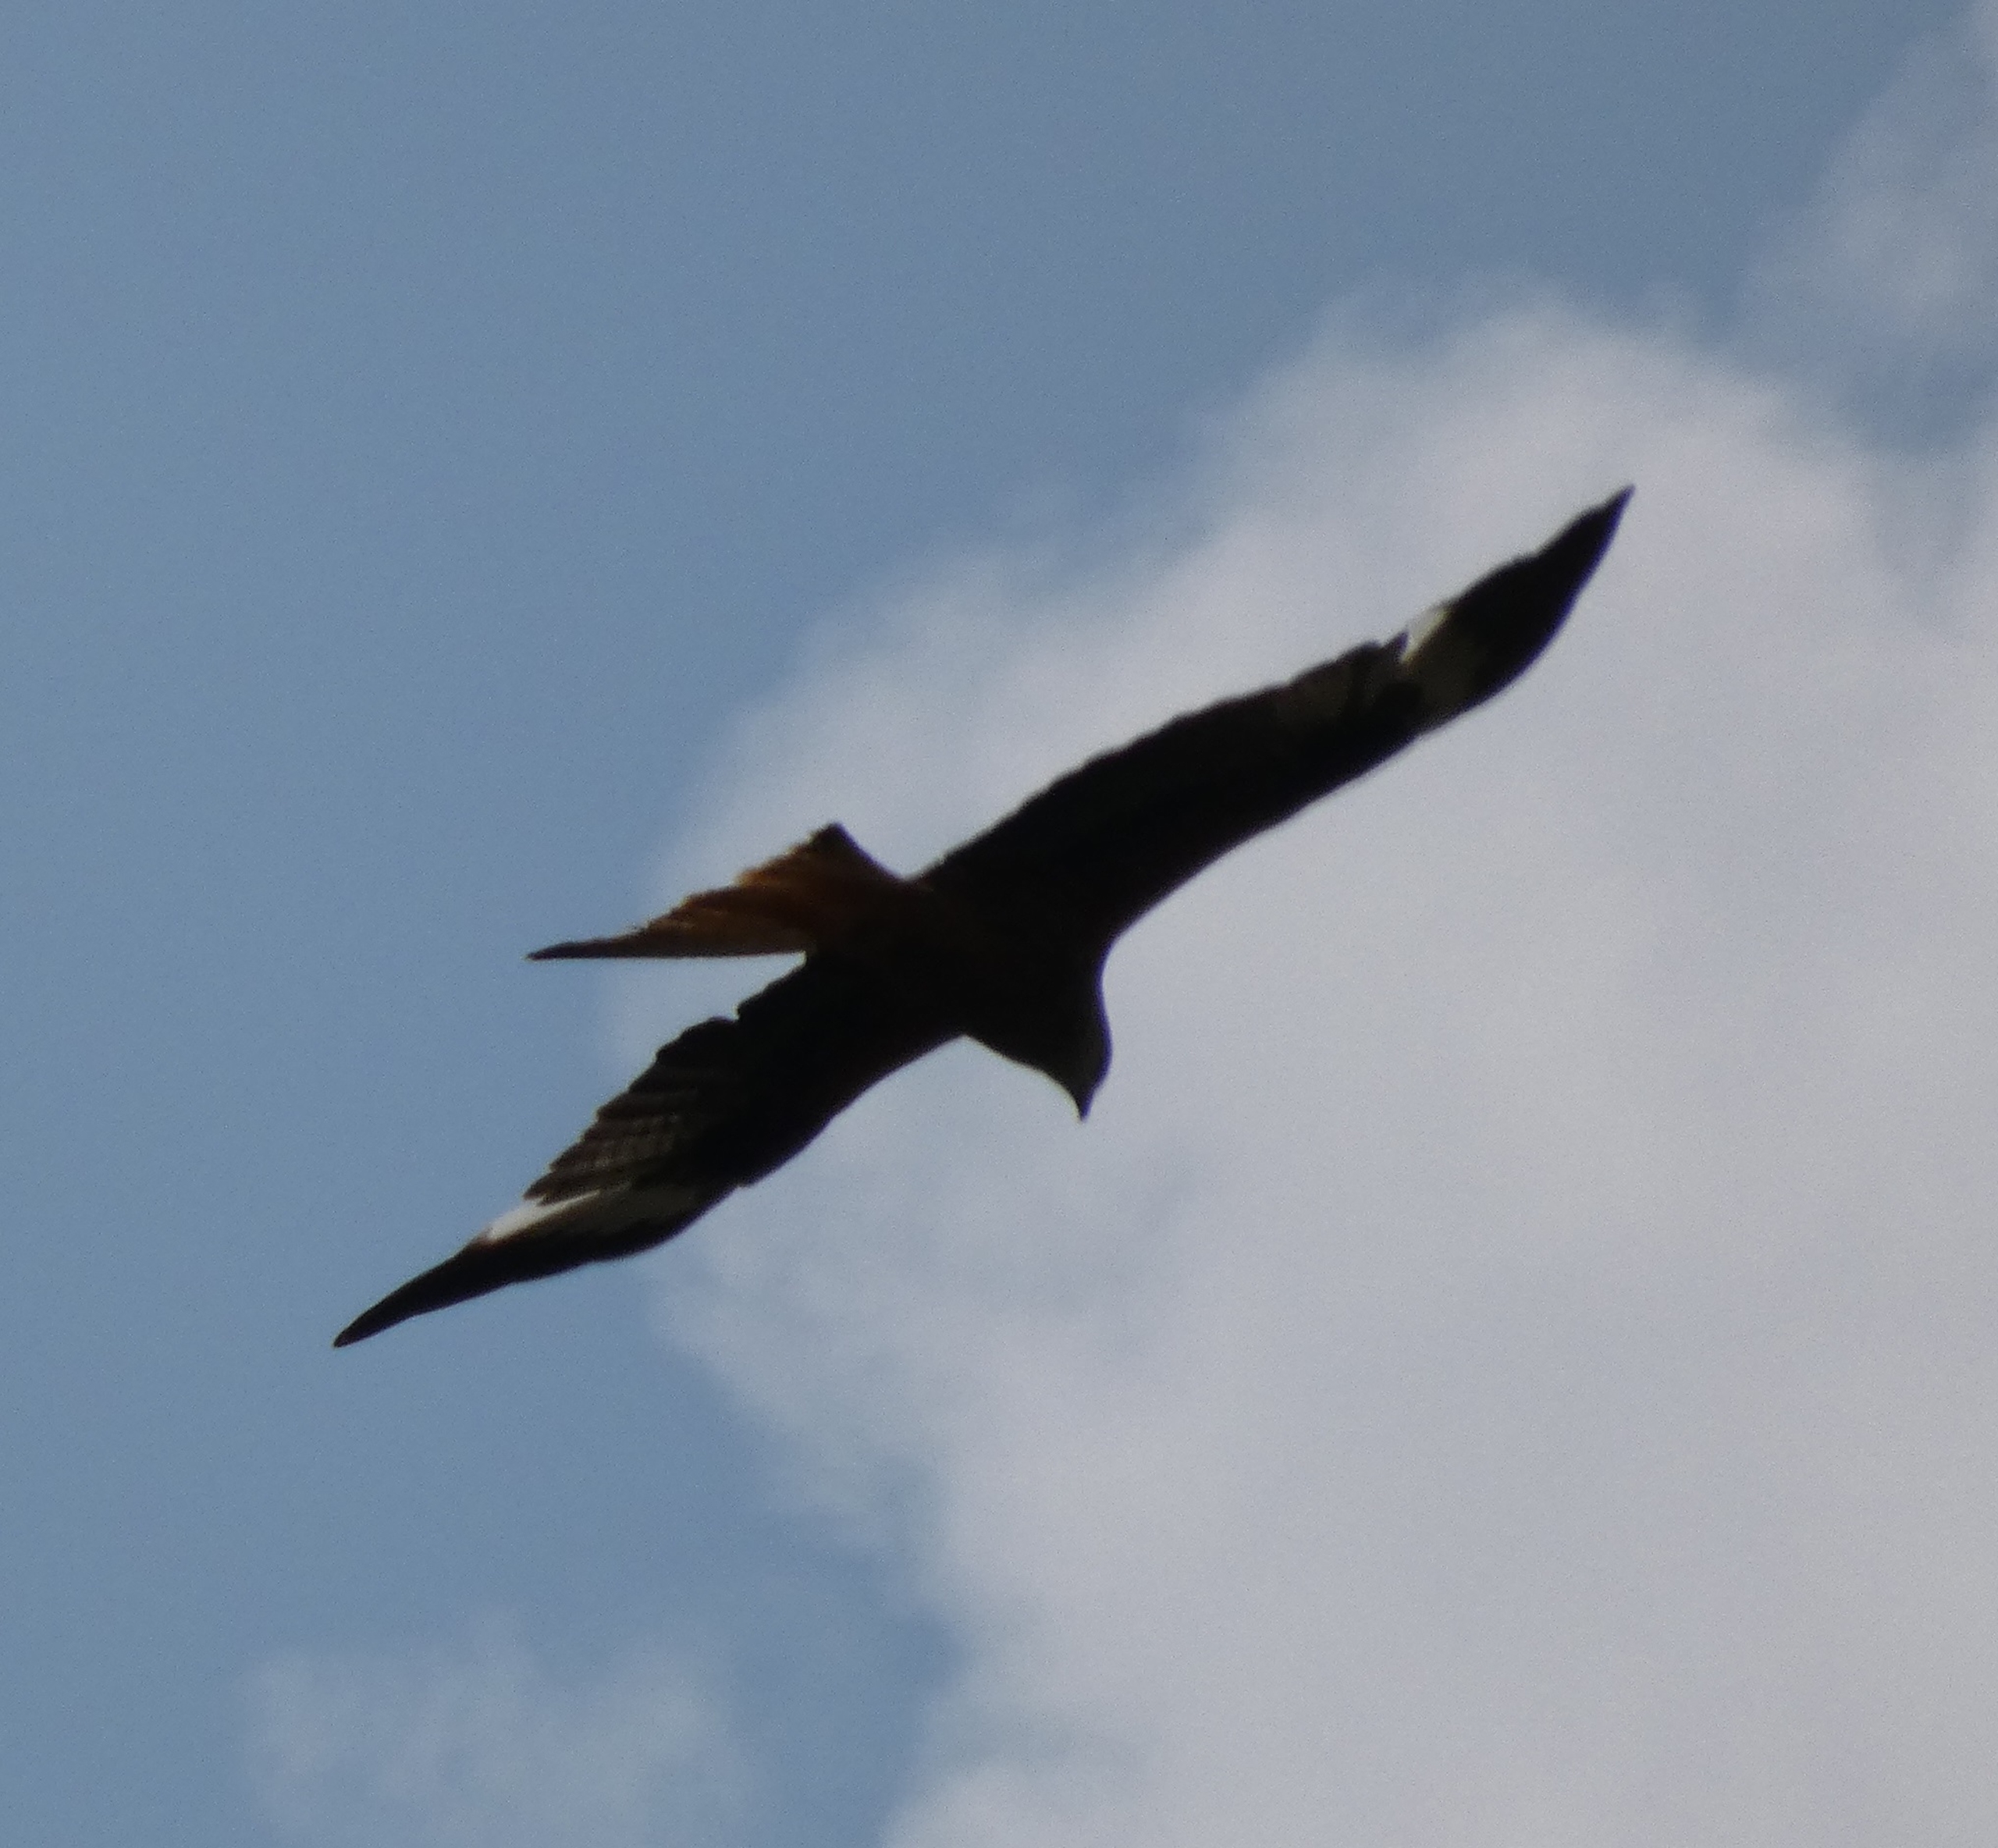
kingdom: Animalia
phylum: Chordata
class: Aves
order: Accipitriformes
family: Accipitridae
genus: Milvus
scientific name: Milvus milvus
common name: Rød glente
